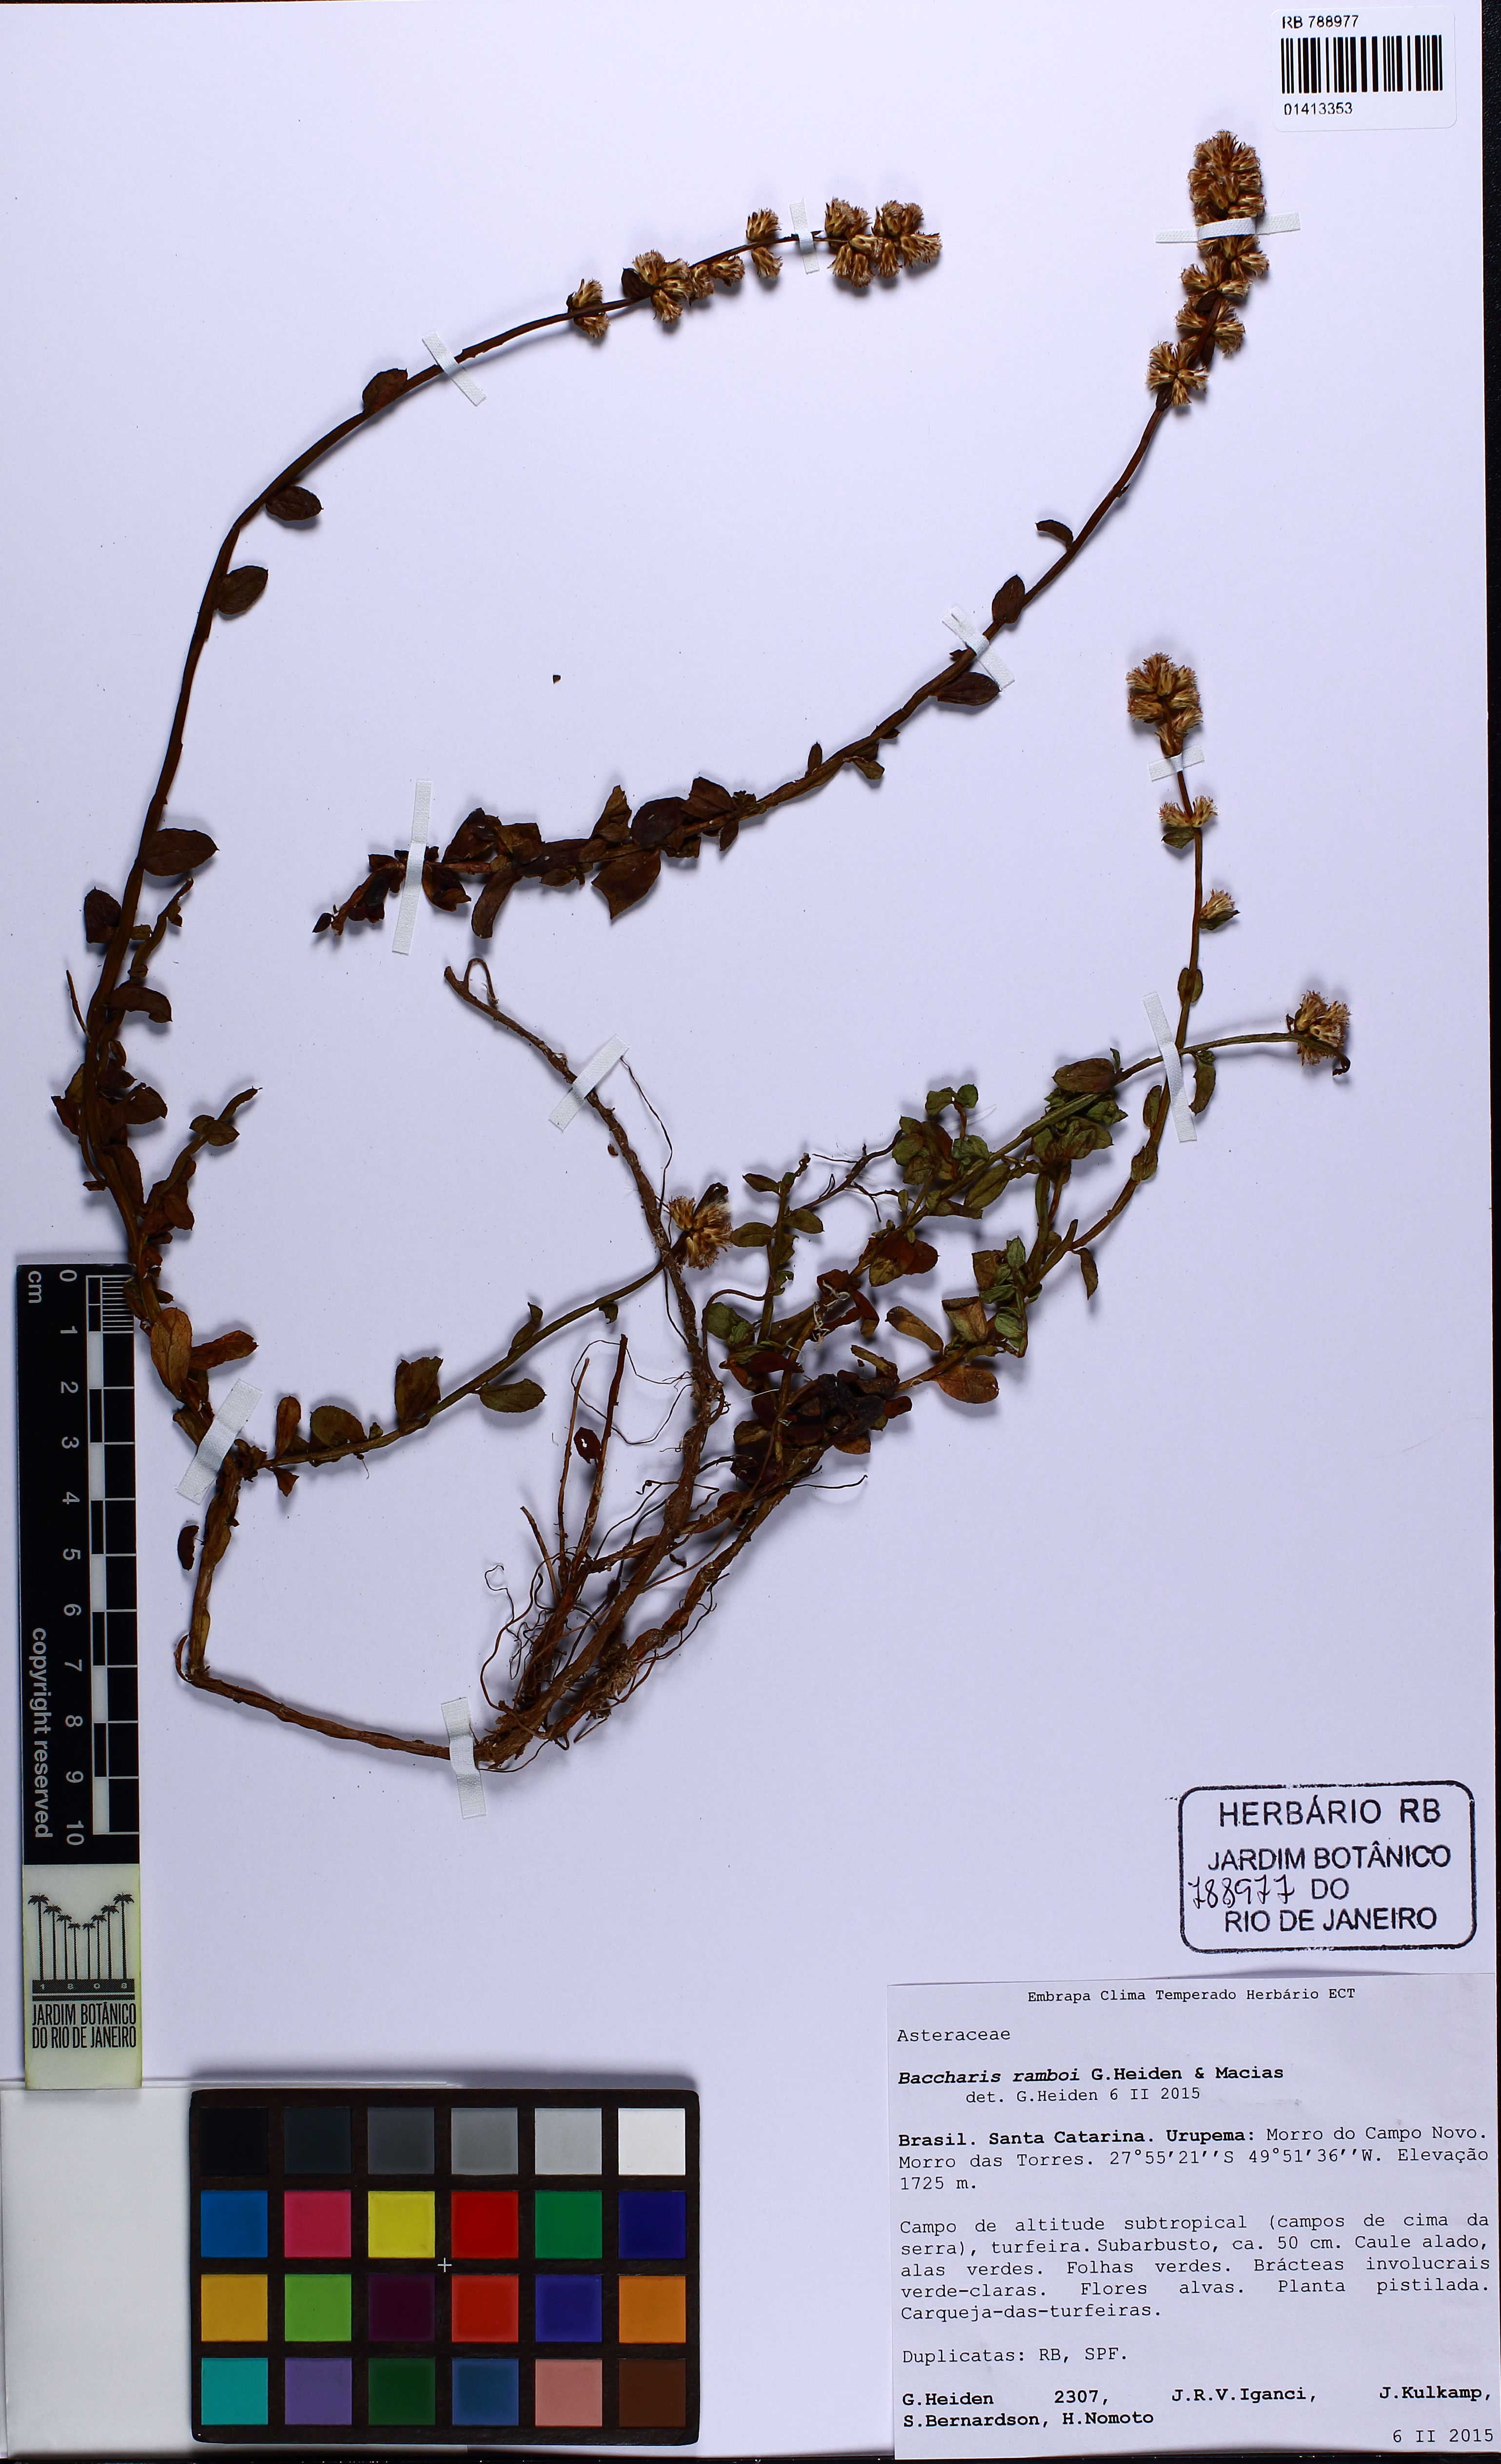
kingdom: Plantae
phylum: Tracheophyta
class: Magnoliopsida
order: Asterales
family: Asteraceae
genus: Baccharis
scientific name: Baccharis ramboi
